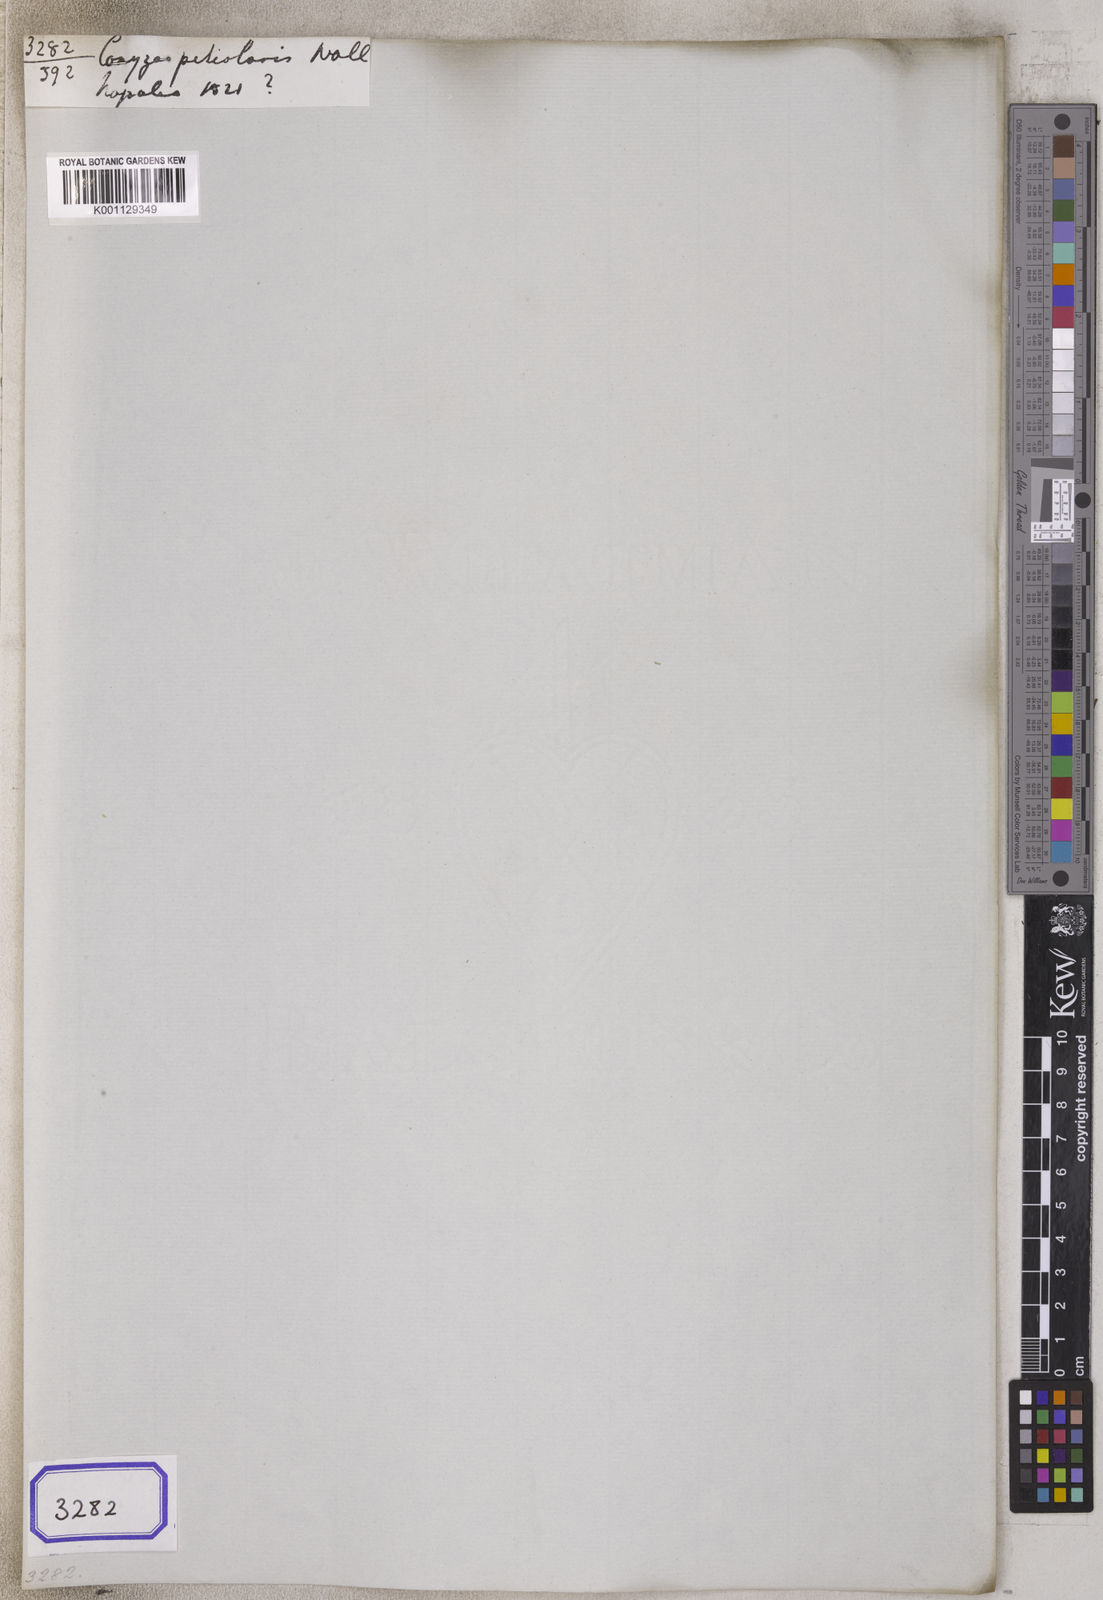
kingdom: Plantae
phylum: Tracheophyta
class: Magnoliopsida
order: Asterales
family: Asteraceae
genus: Eschenbachia
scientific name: Eschenbachia japonica
